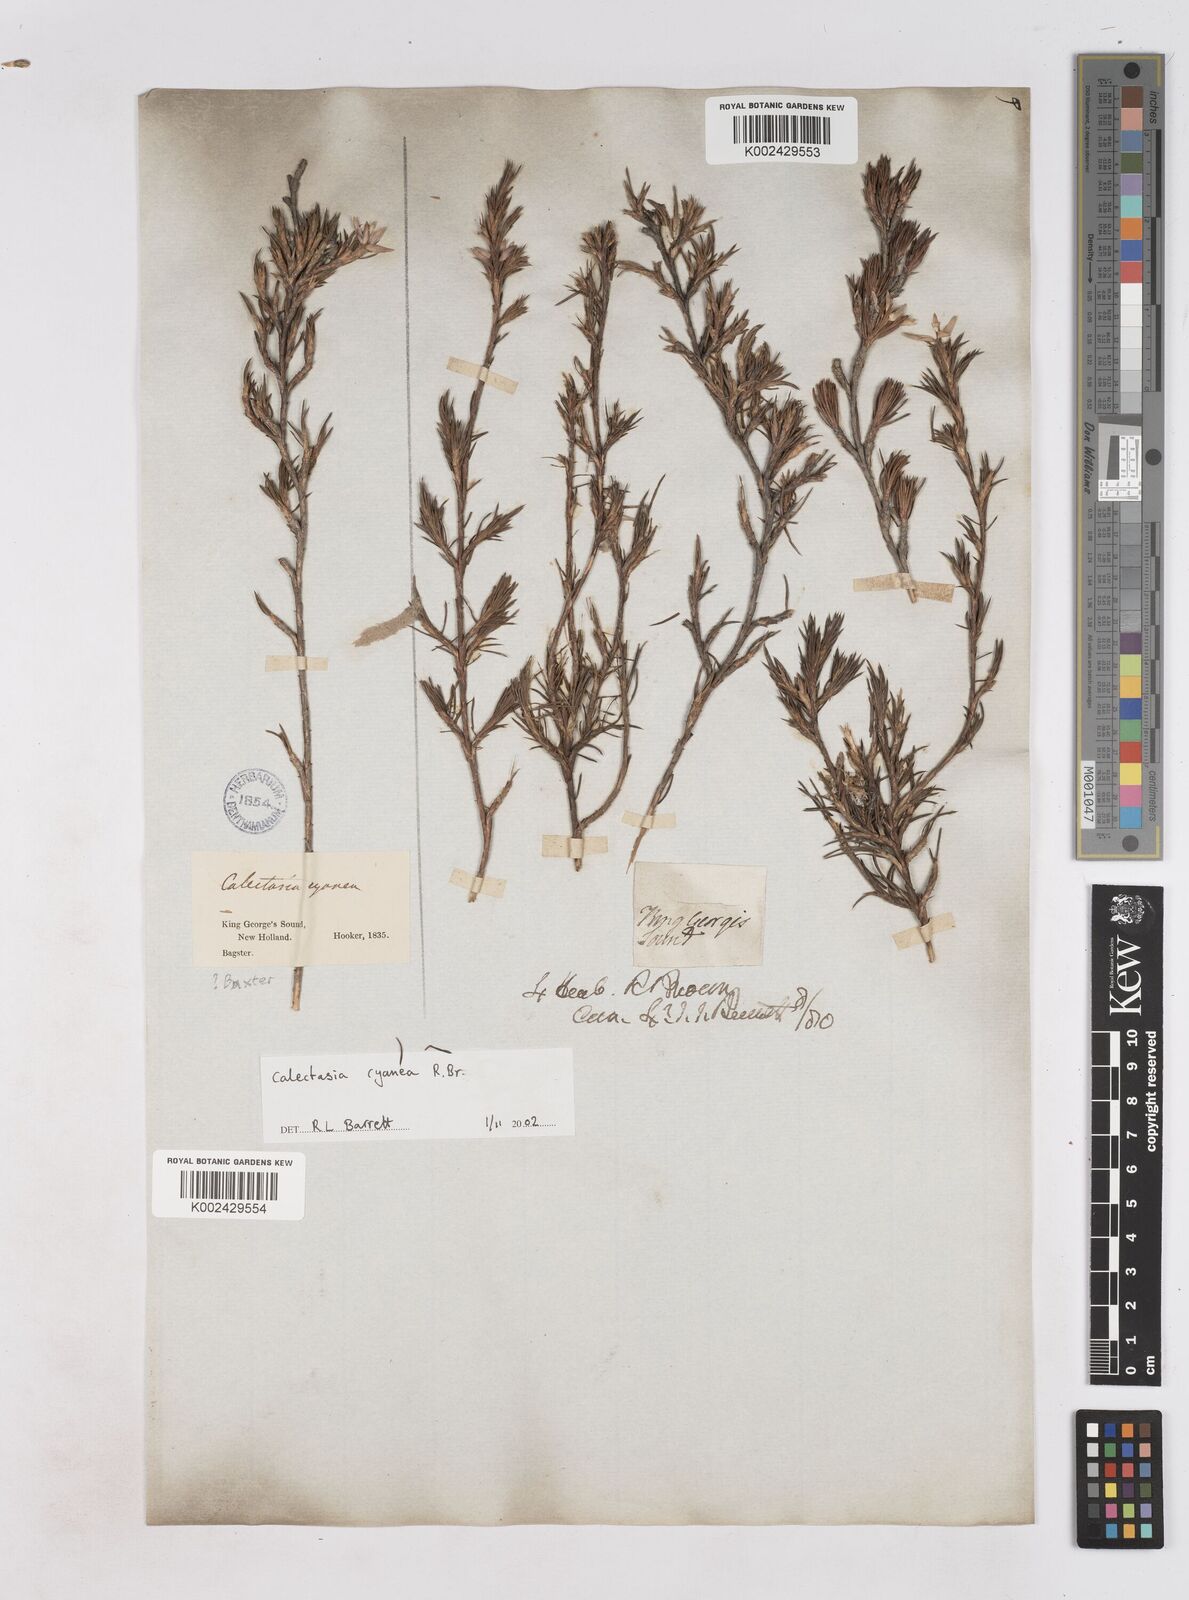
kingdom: Plantae
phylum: Tracheophyta
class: Liliopsida
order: Arecales
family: Dasypogonaceae
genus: Calectasia
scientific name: Calectasia cyanea
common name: Blue tinsel-lily
